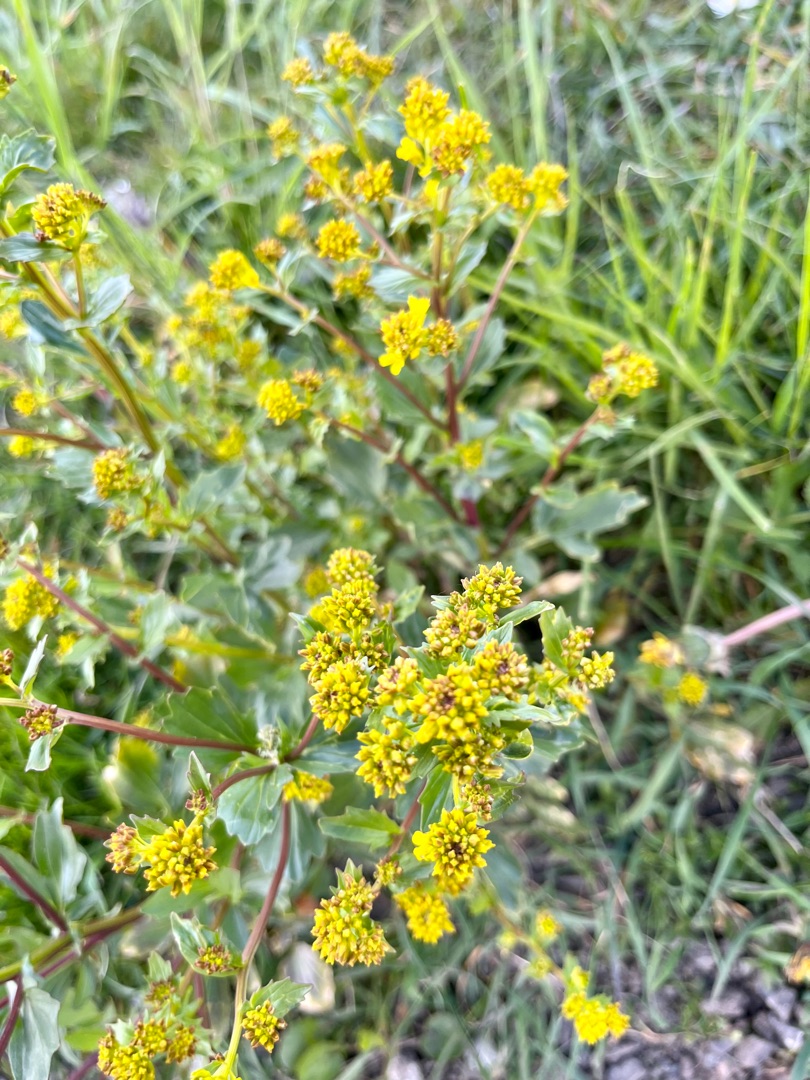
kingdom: Plantae
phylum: Tracheophyta
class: Magnoliopsida
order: Brassicales
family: Brassicaceae
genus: Barbarea
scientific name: Barbarea vulgaris
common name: Almindelig vinterkarse
